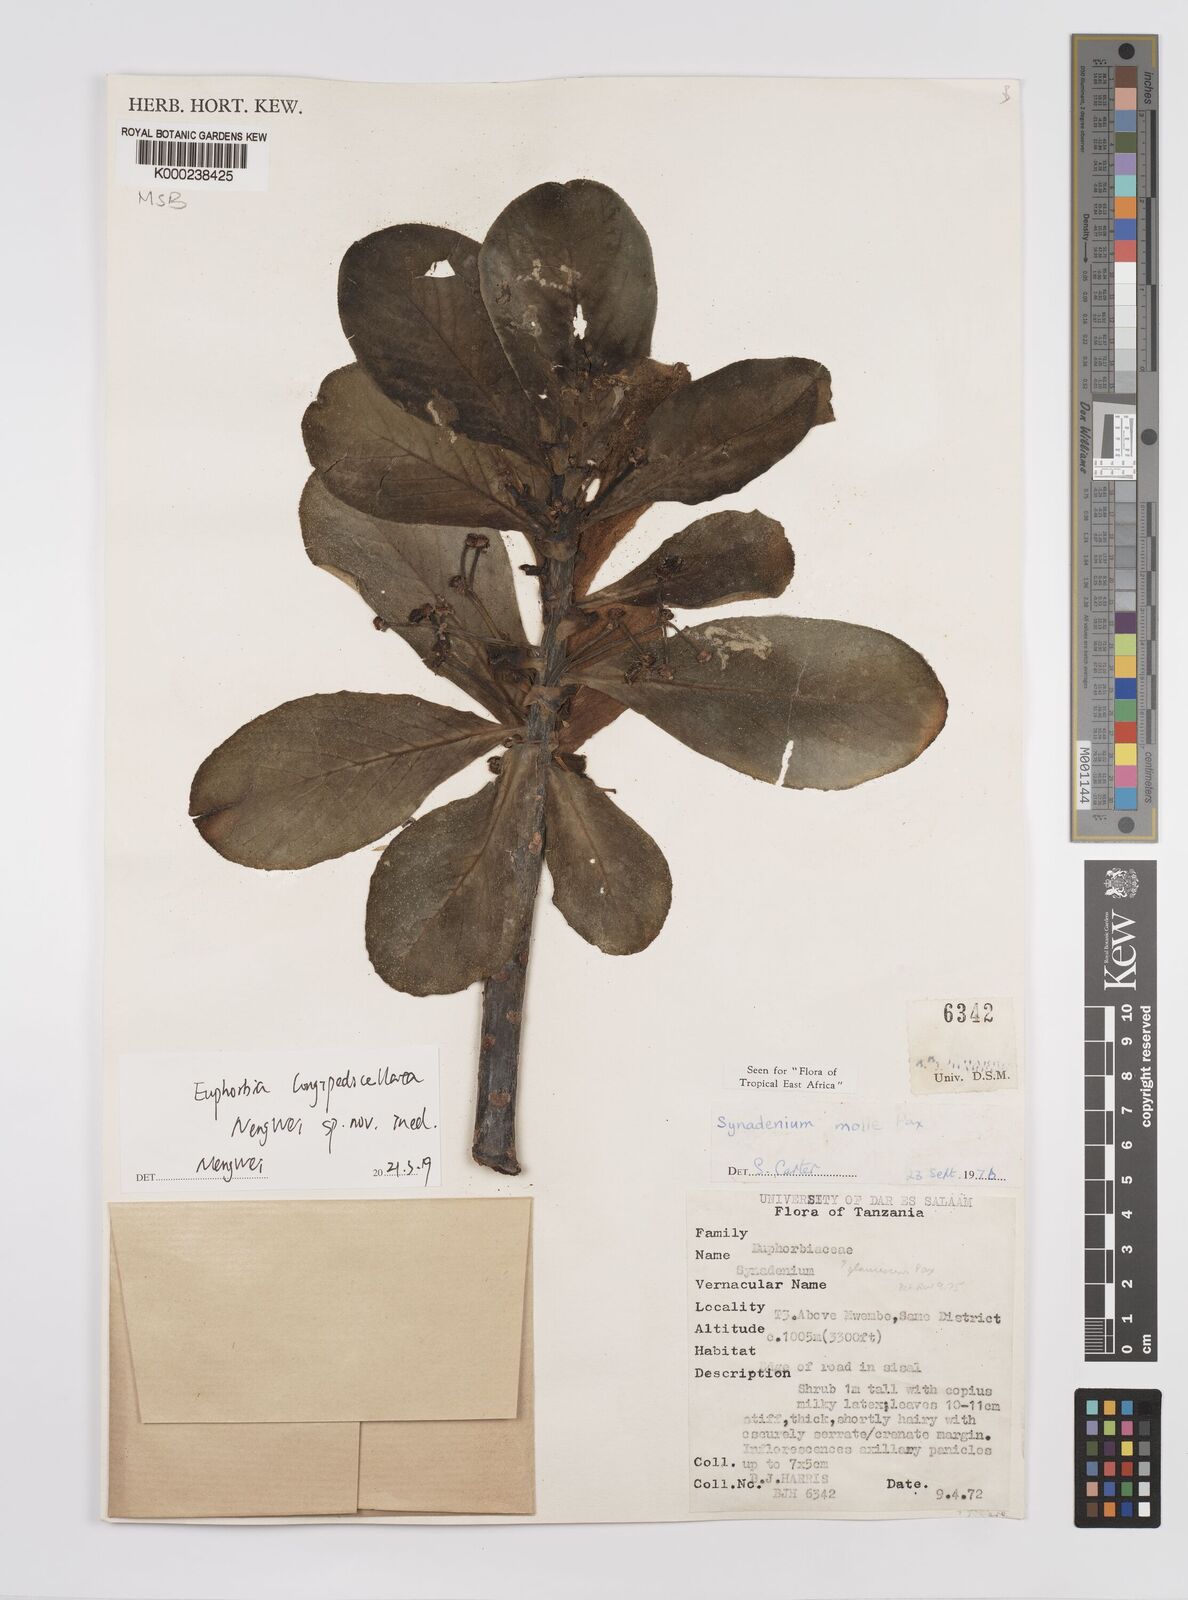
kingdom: Plantae
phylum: Tracheophyta
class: Magnoliopsida
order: Malpighiales
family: Euphorbiaceae
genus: Euphorbia
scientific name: Euphorbia pseudomollis
